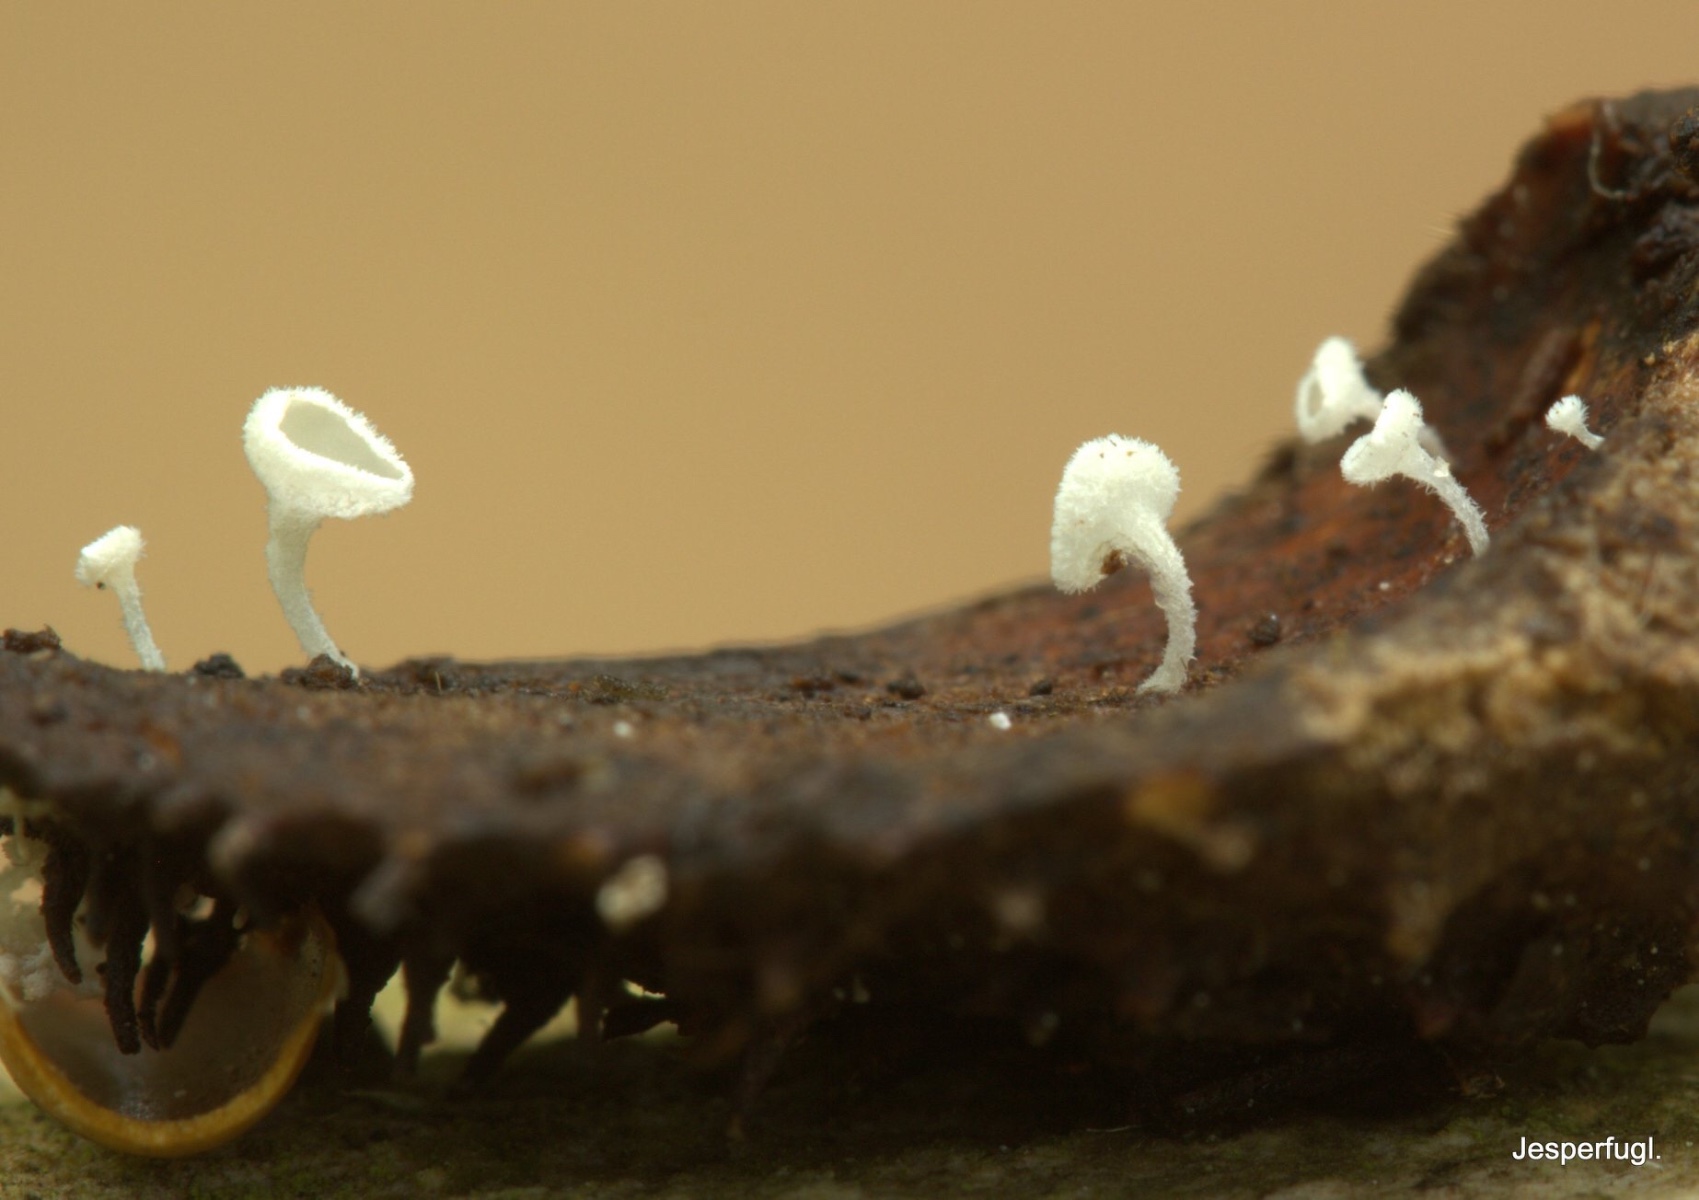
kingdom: Fungi
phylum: Ascomycota
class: Leotiomycetes
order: Helotiales
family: Lachnaceae
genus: Lachnum
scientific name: Lachnum virgineum
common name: jomfru-frynseskive
